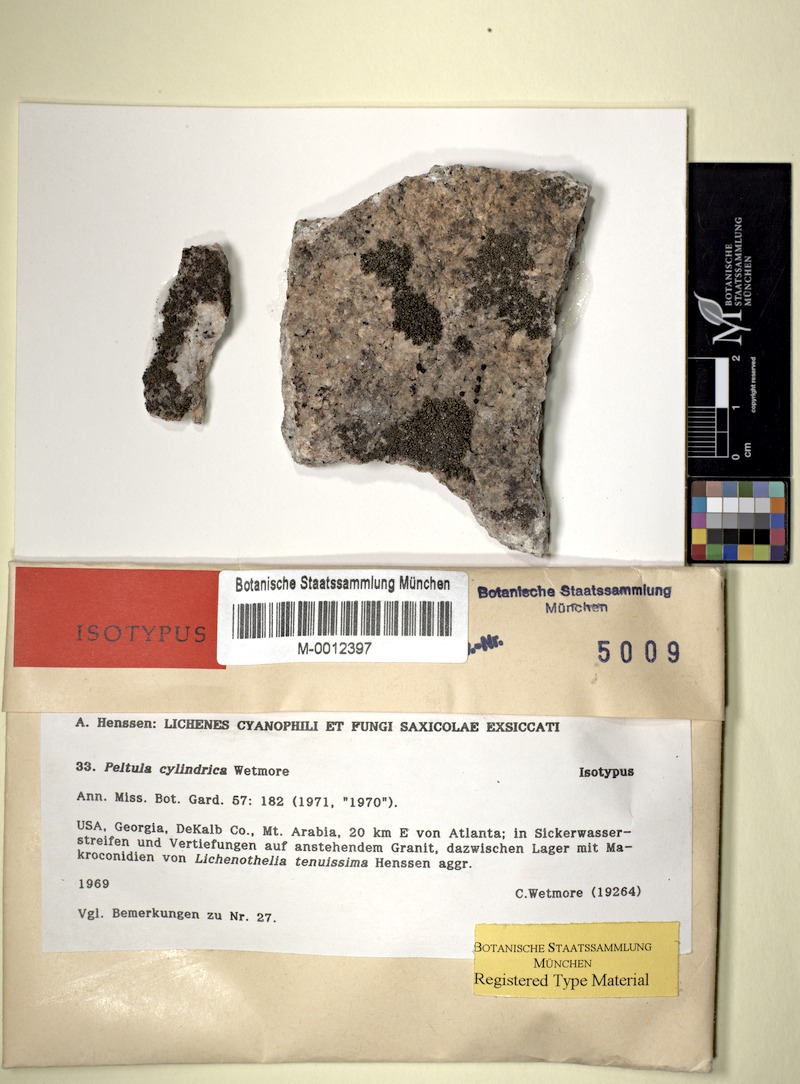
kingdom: Fungi
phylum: Ascomycota
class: Dothideomycetes
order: Lichenotheliales
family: Lichenotheliaceae
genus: Lichenothelia
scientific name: Lichenothelia
